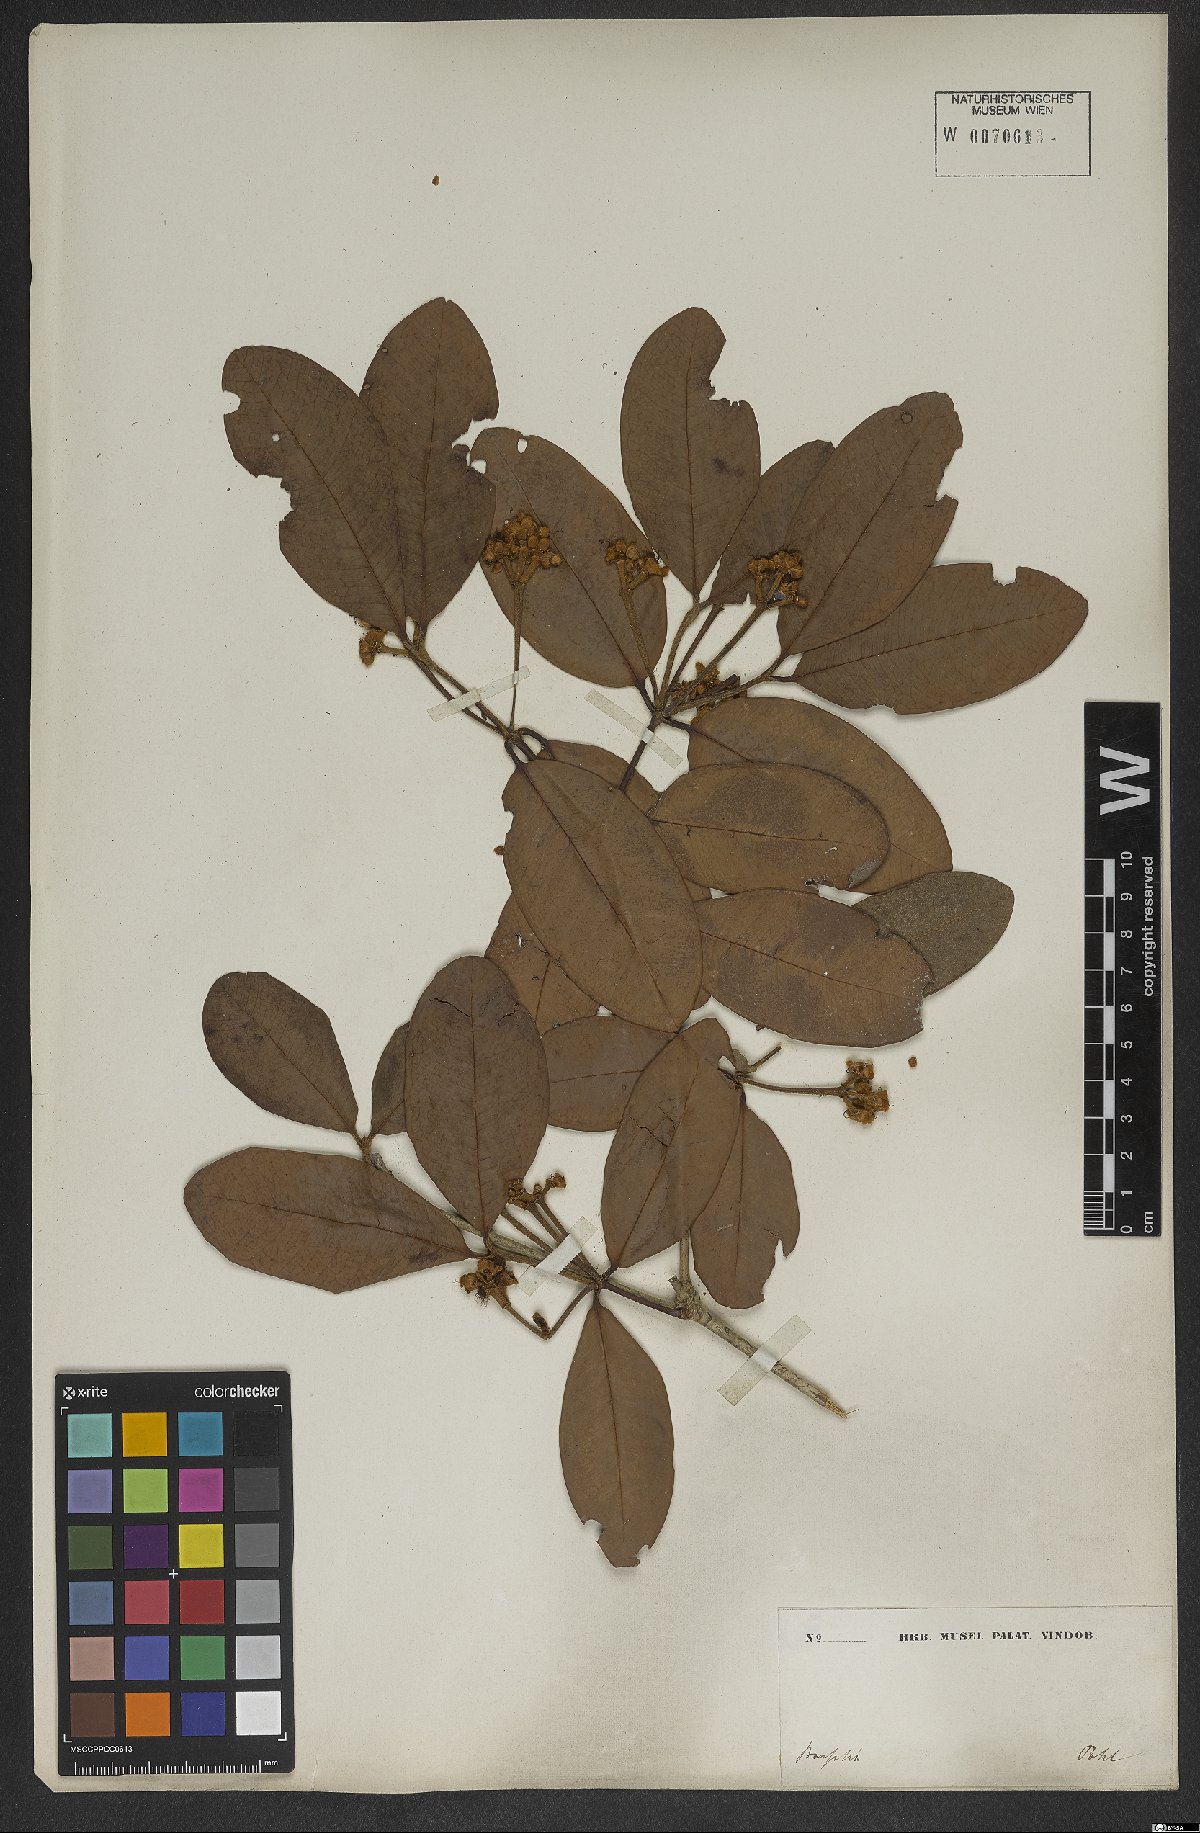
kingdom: Plantae
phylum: Tracheophyta
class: Magnoliopsida
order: Myrtales
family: Myrtaceae
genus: Myrcia
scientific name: Myrcia martiusiana
